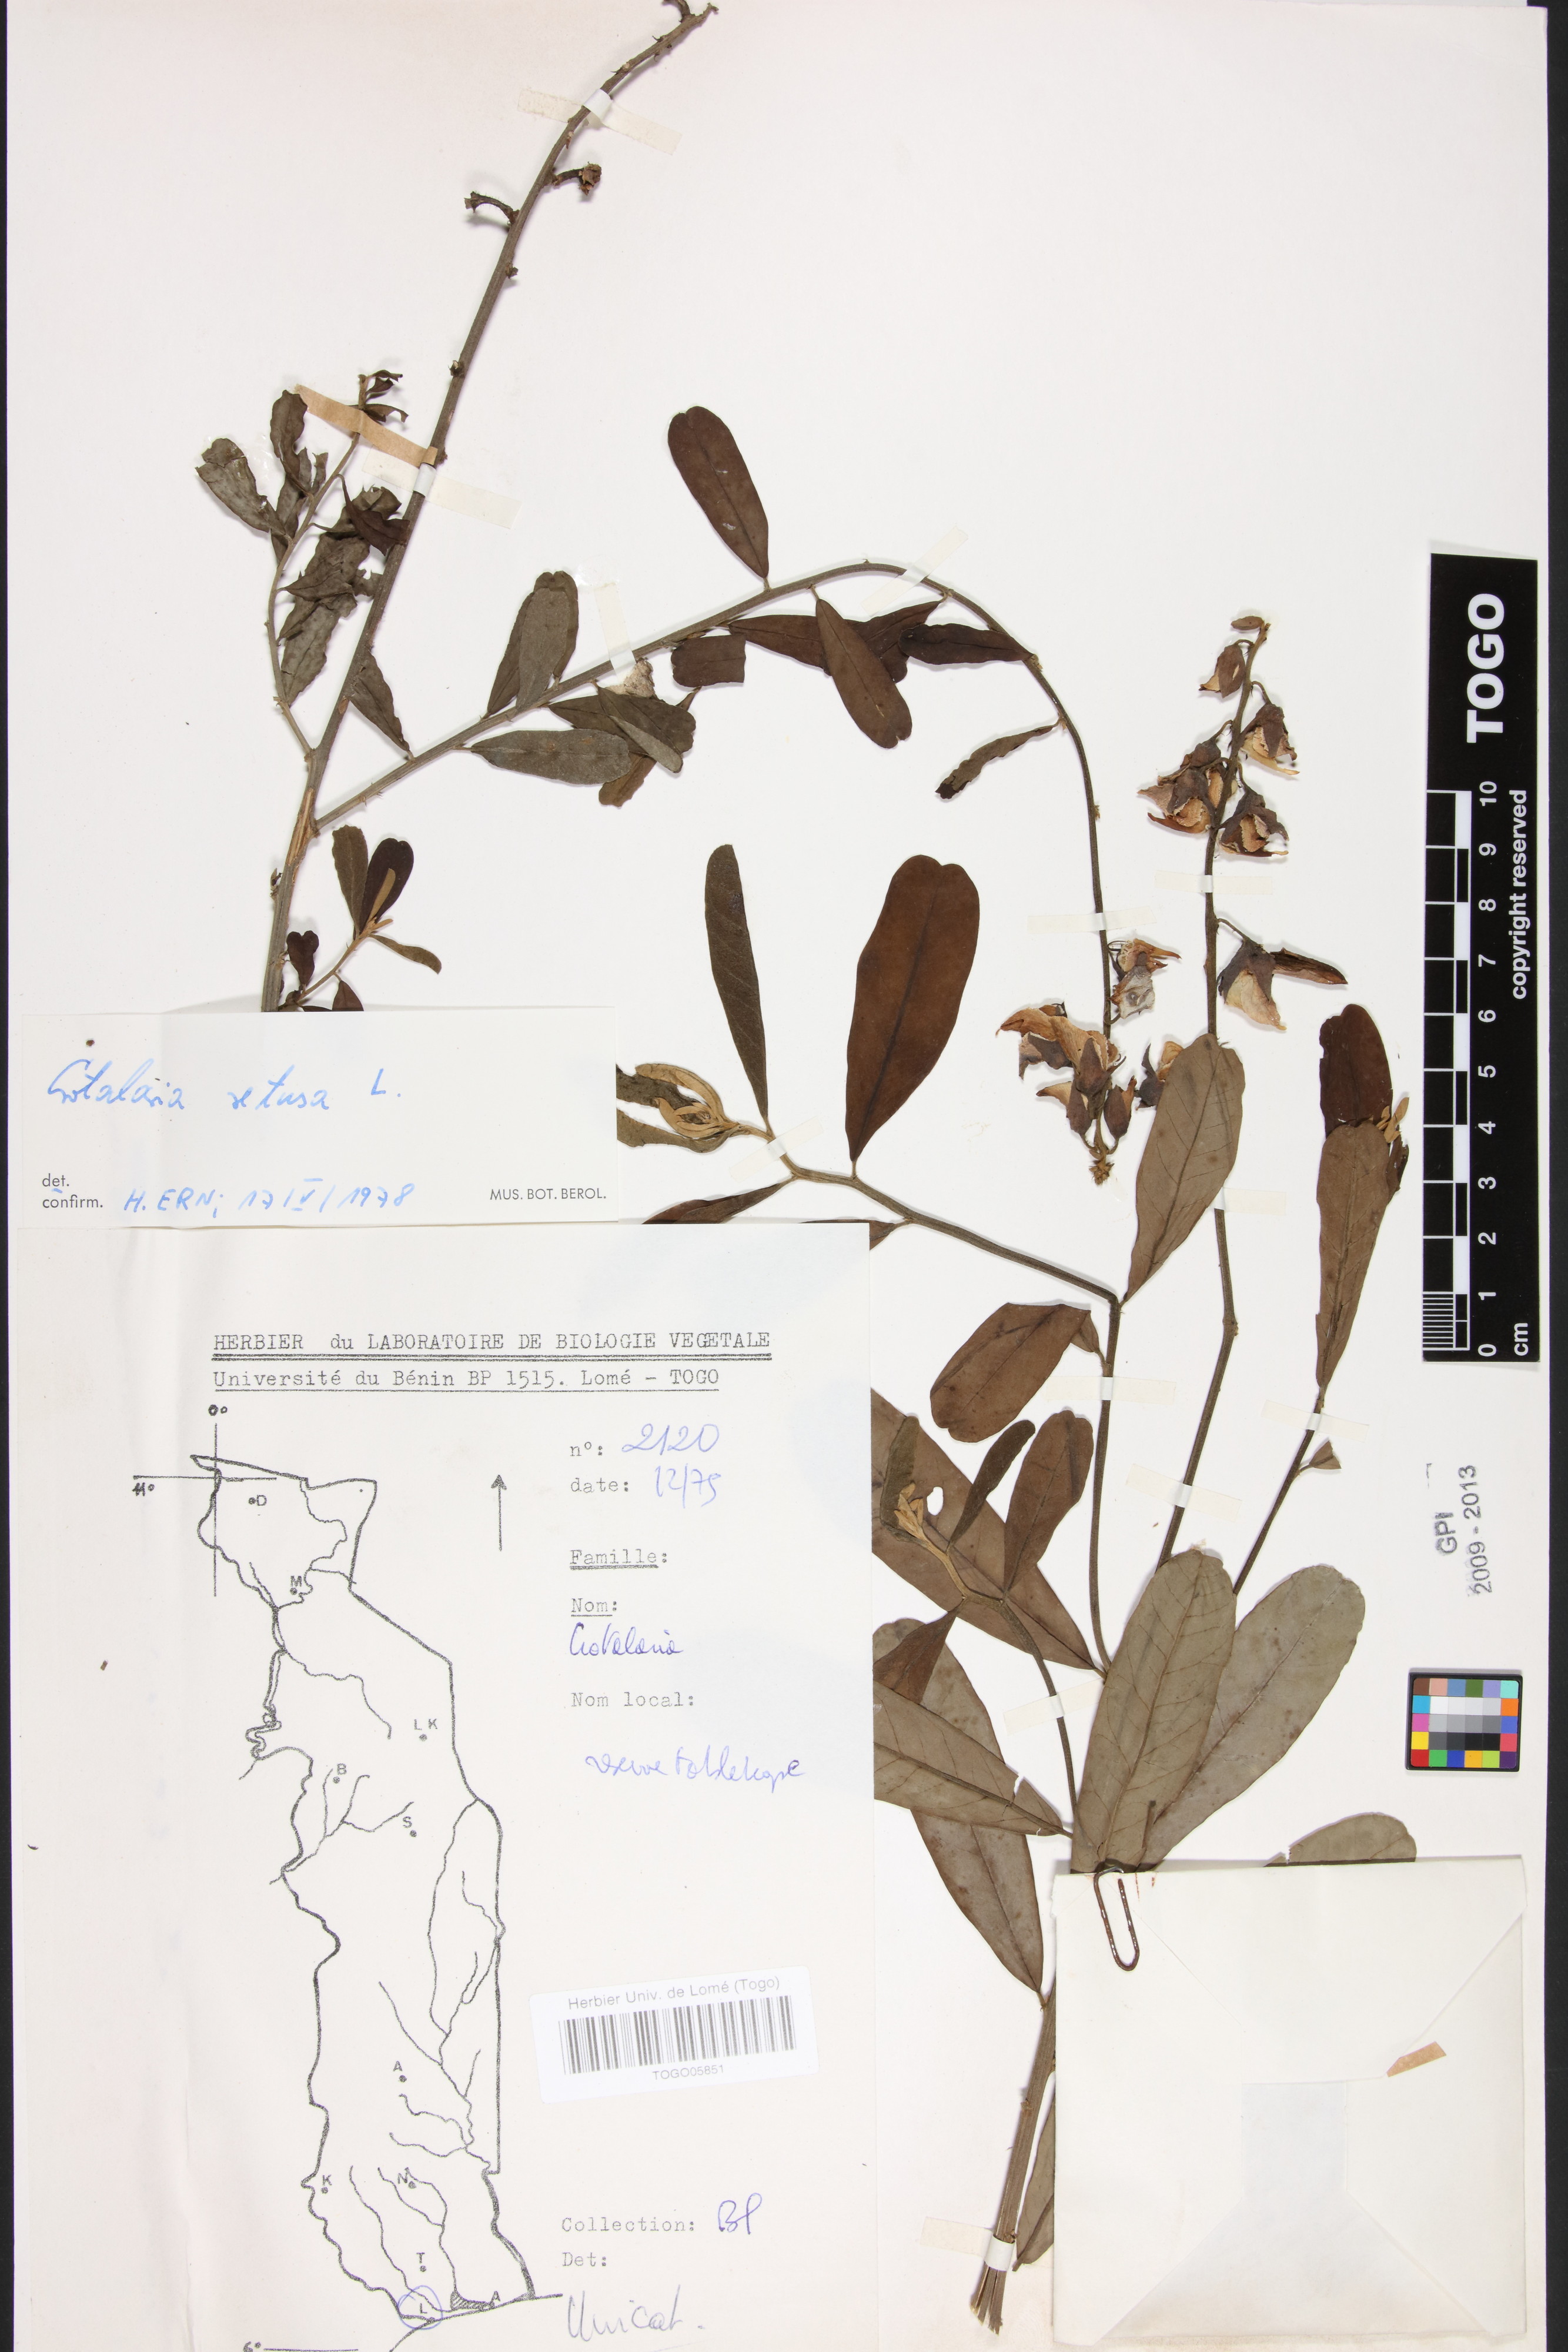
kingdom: Plantae
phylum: Tracheophyta
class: Magnoliopsida
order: Fabales
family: Fabaceae
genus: Crotalaria
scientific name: Crotalaria retusa
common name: Rattleweed
